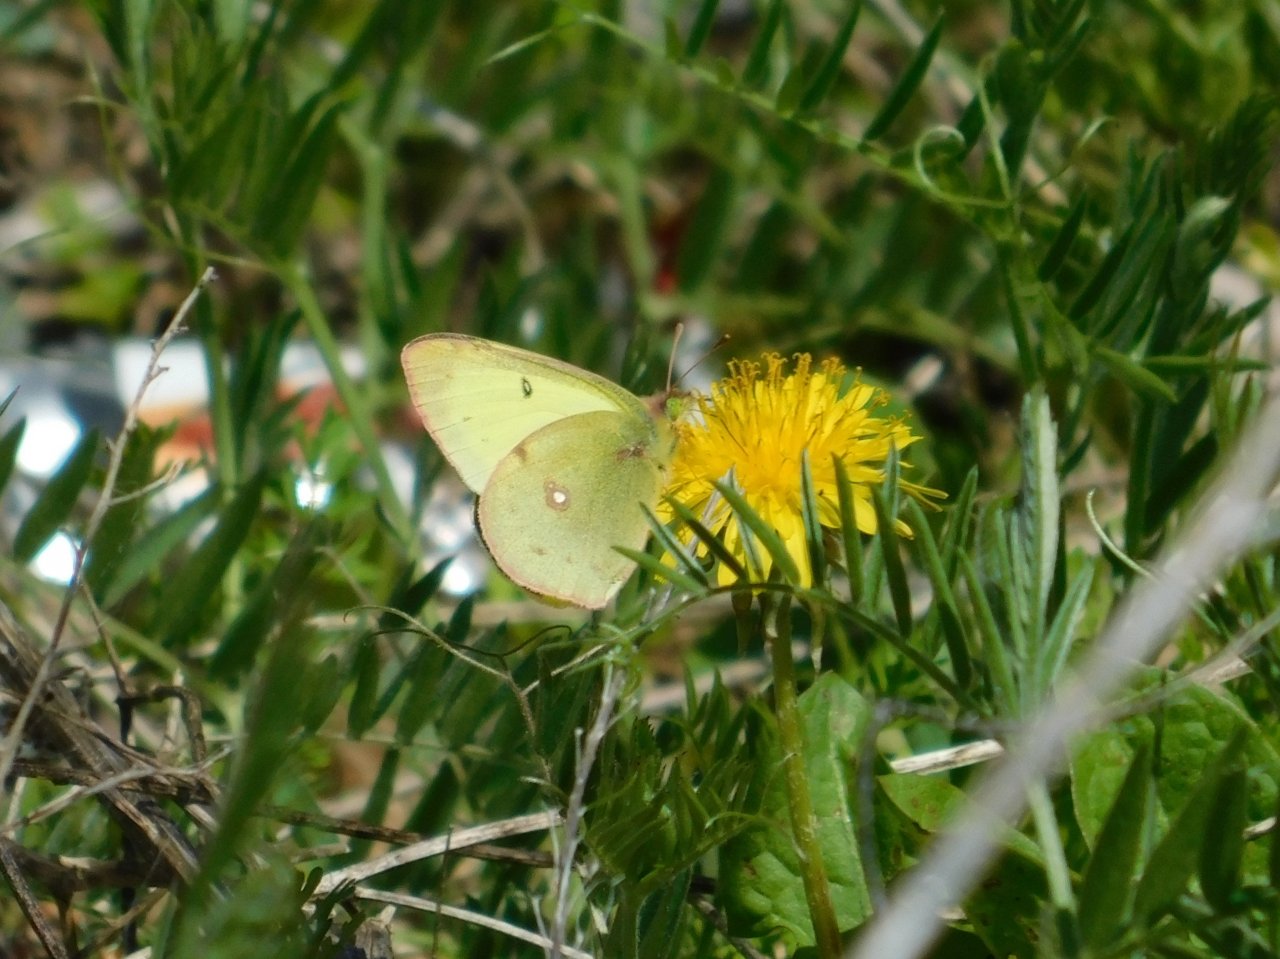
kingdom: Animalia
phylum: Arthropoda
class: Insecta
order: Lepidoptera
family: Pieridae
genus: Colias
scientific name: Colias philodice
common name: Clouded Sulphur
